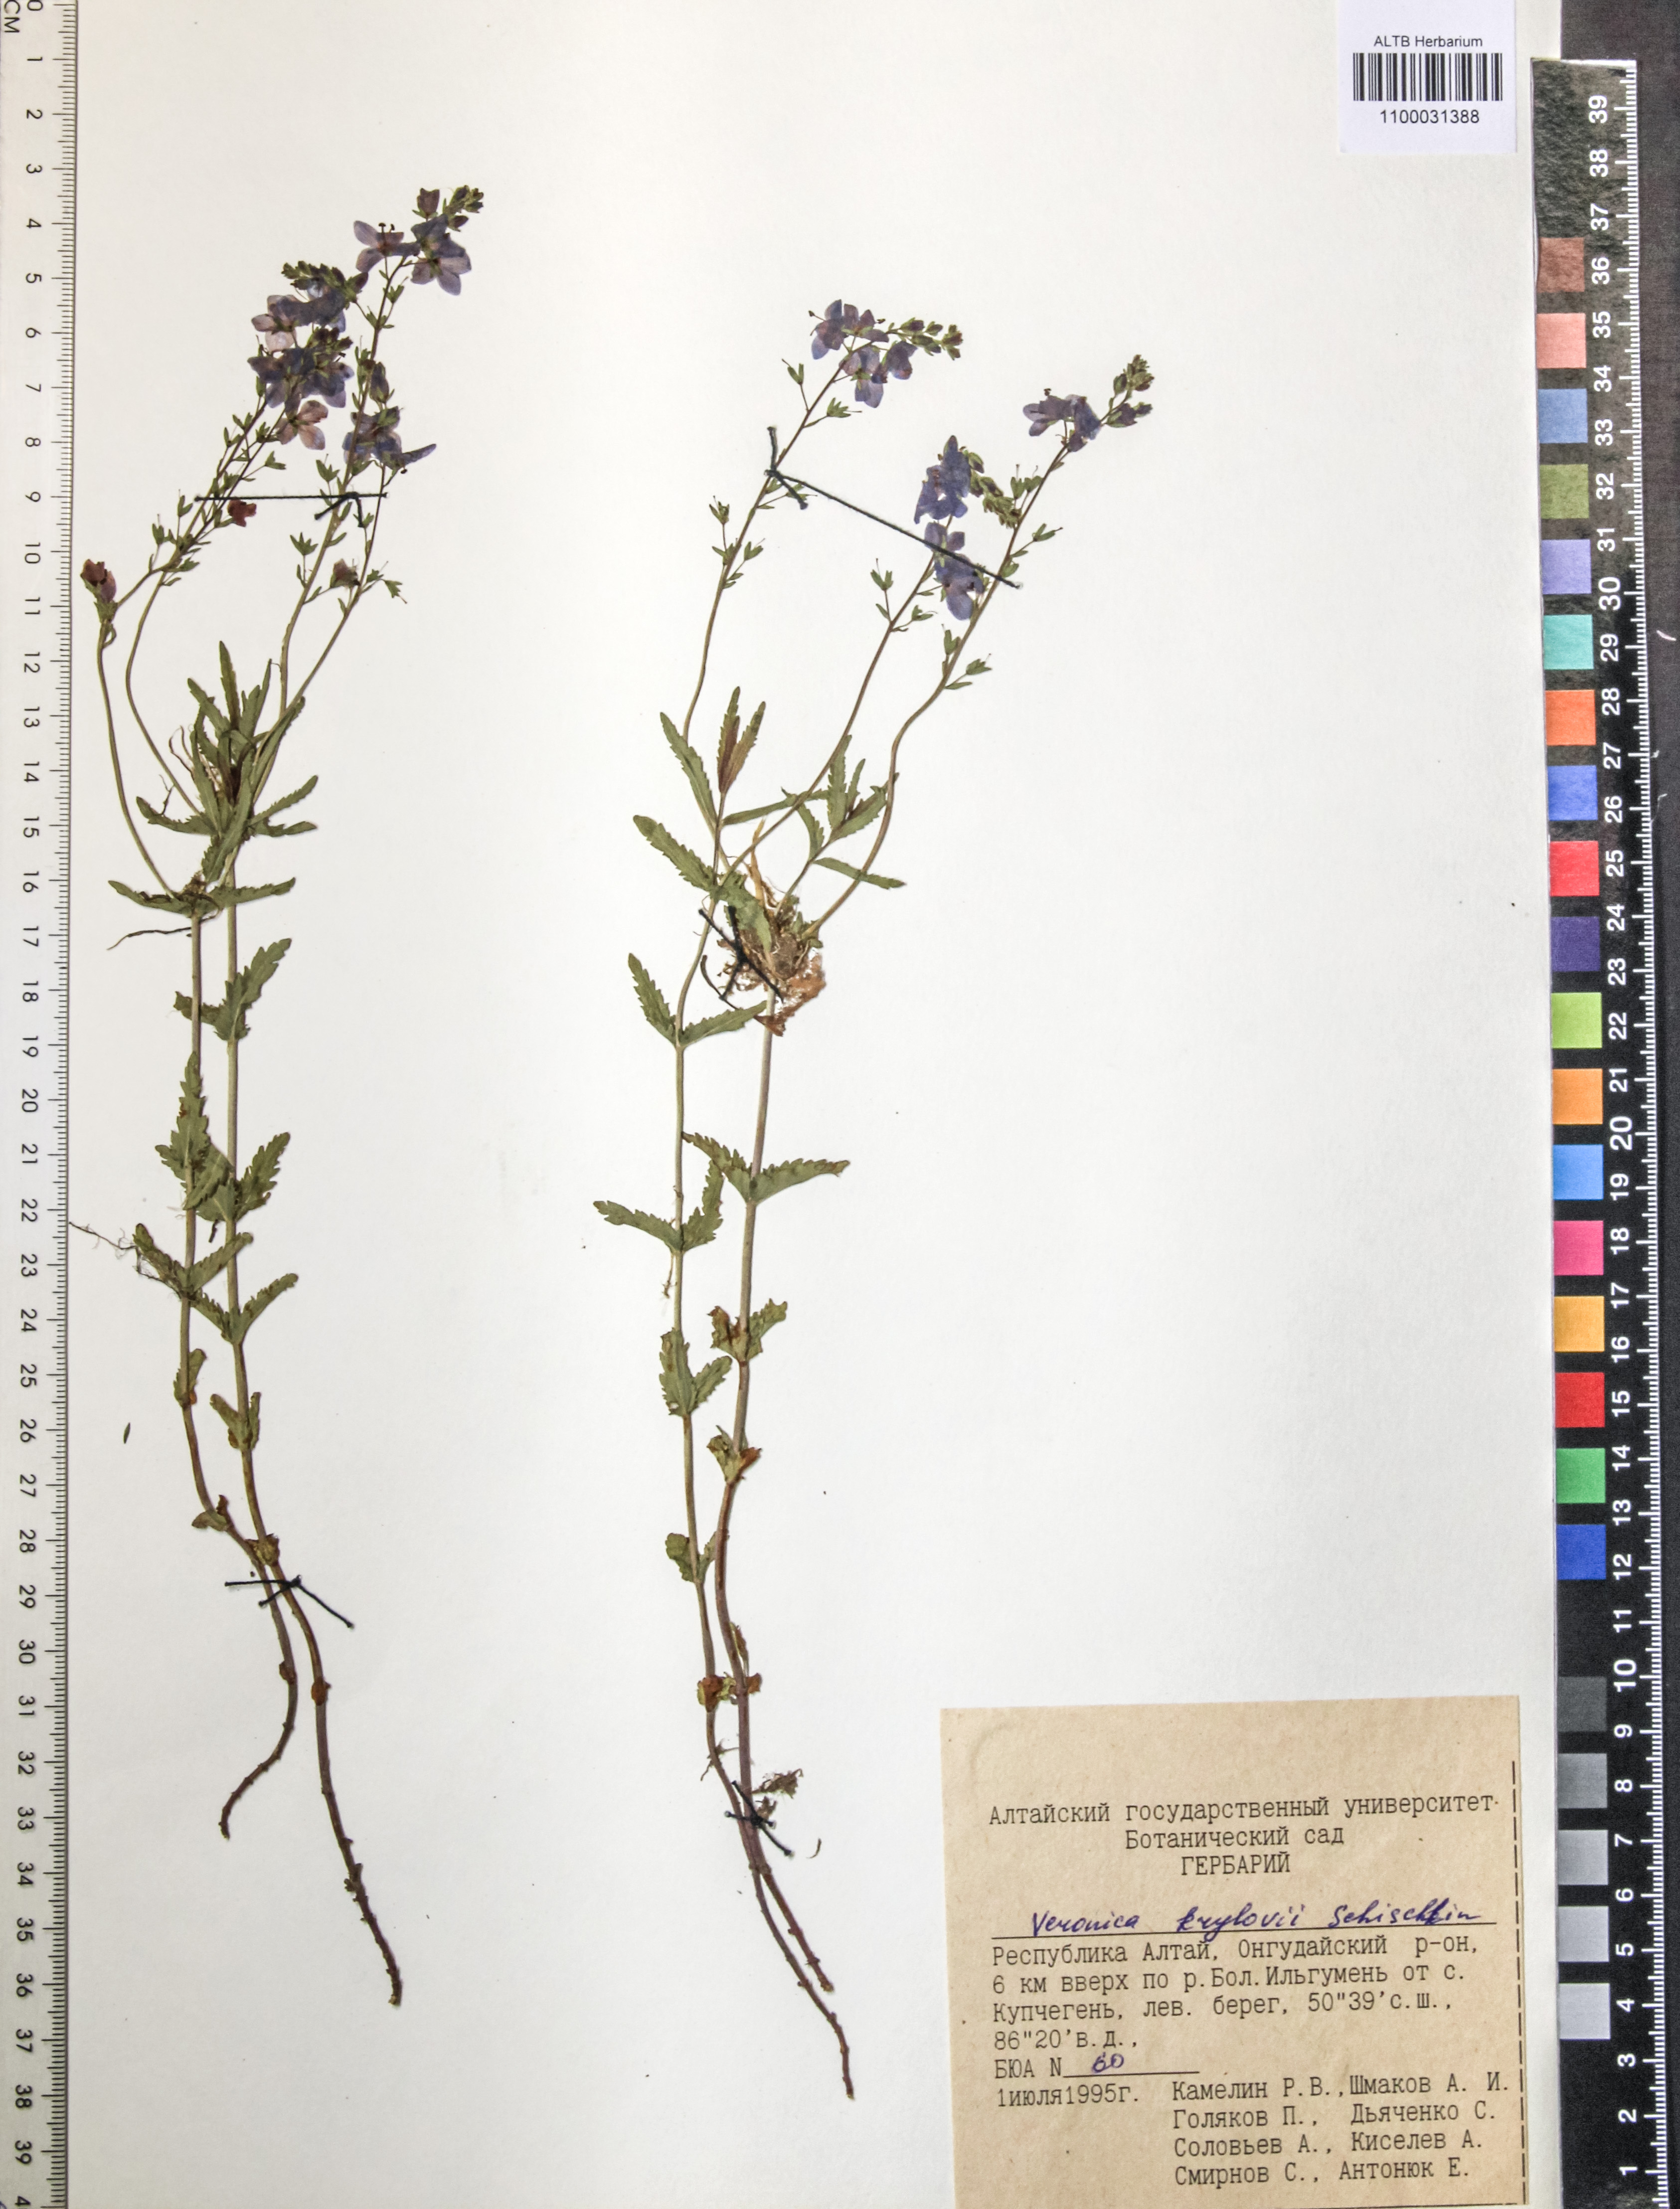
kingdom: Plantae
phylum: Tracheophyta
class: Magnoliopsida
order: Lamiales
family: Plantaginaceae
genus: Veronica
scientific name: Veronica krylovii
